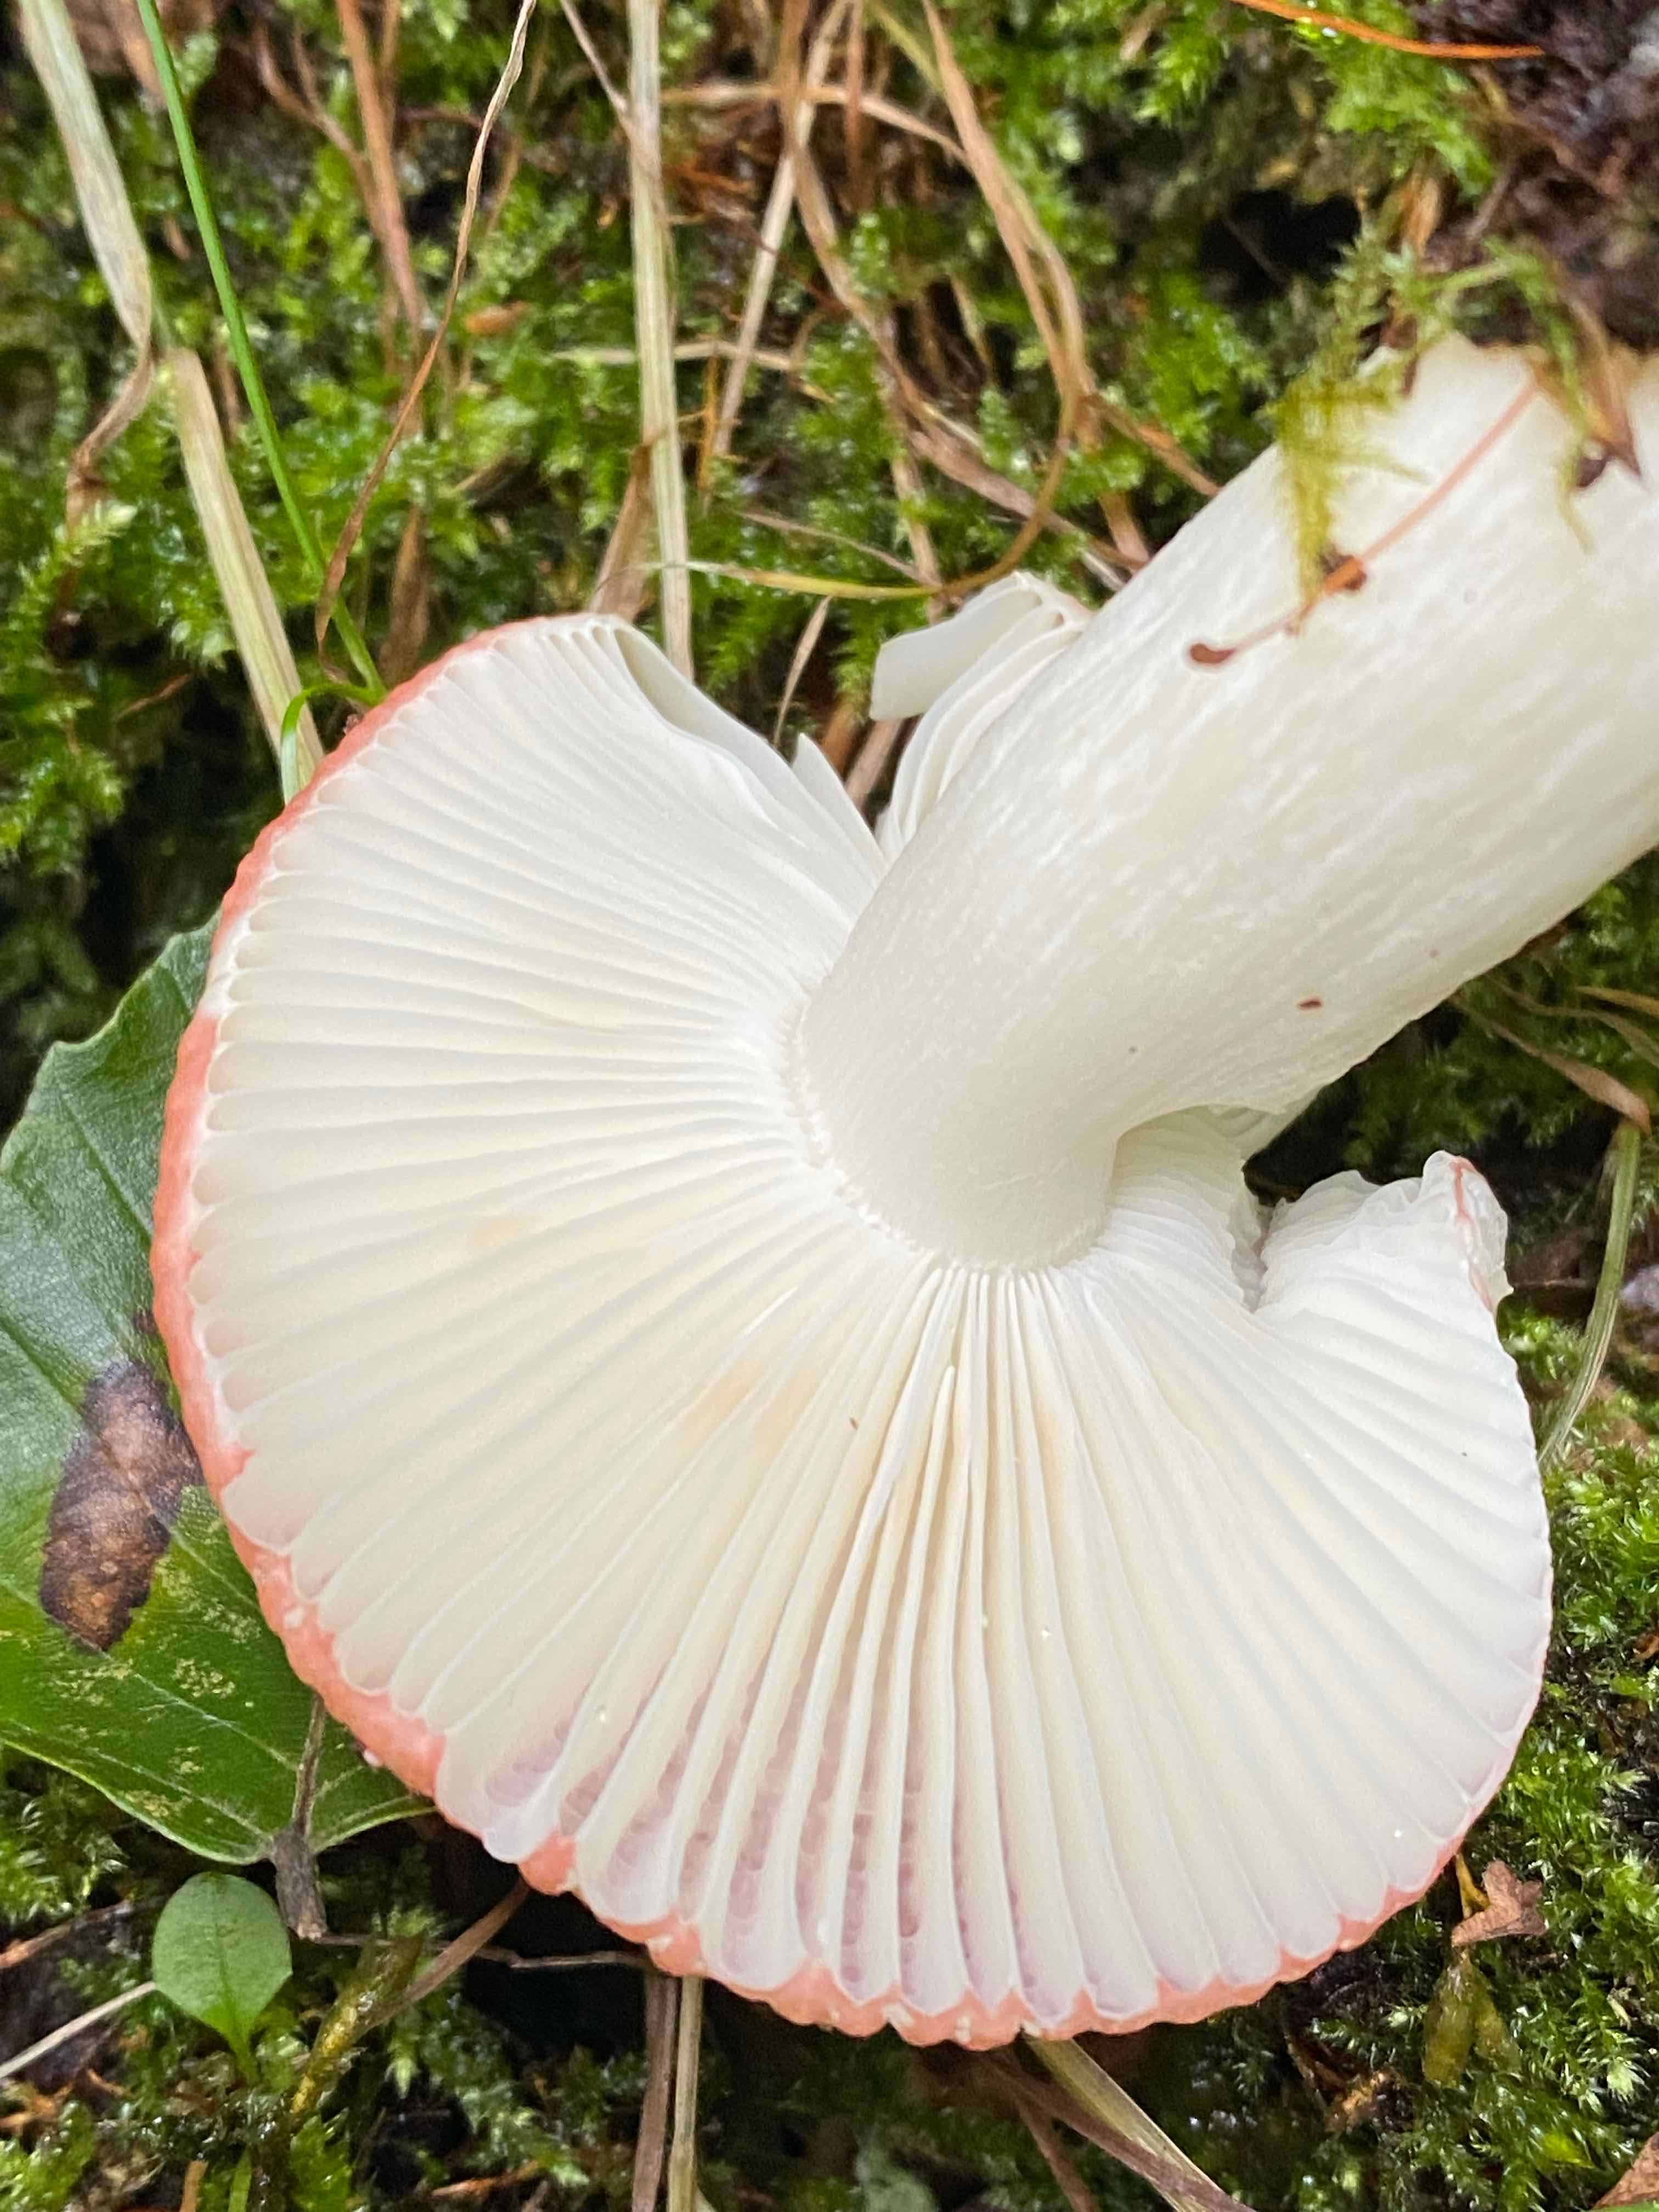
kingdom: Fungi
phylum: Basidiomycota
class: Agaricomycetes
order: Russulales
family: Russulaceae
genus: Russula
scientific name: Russula emetica
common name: stor gift-skørhat
